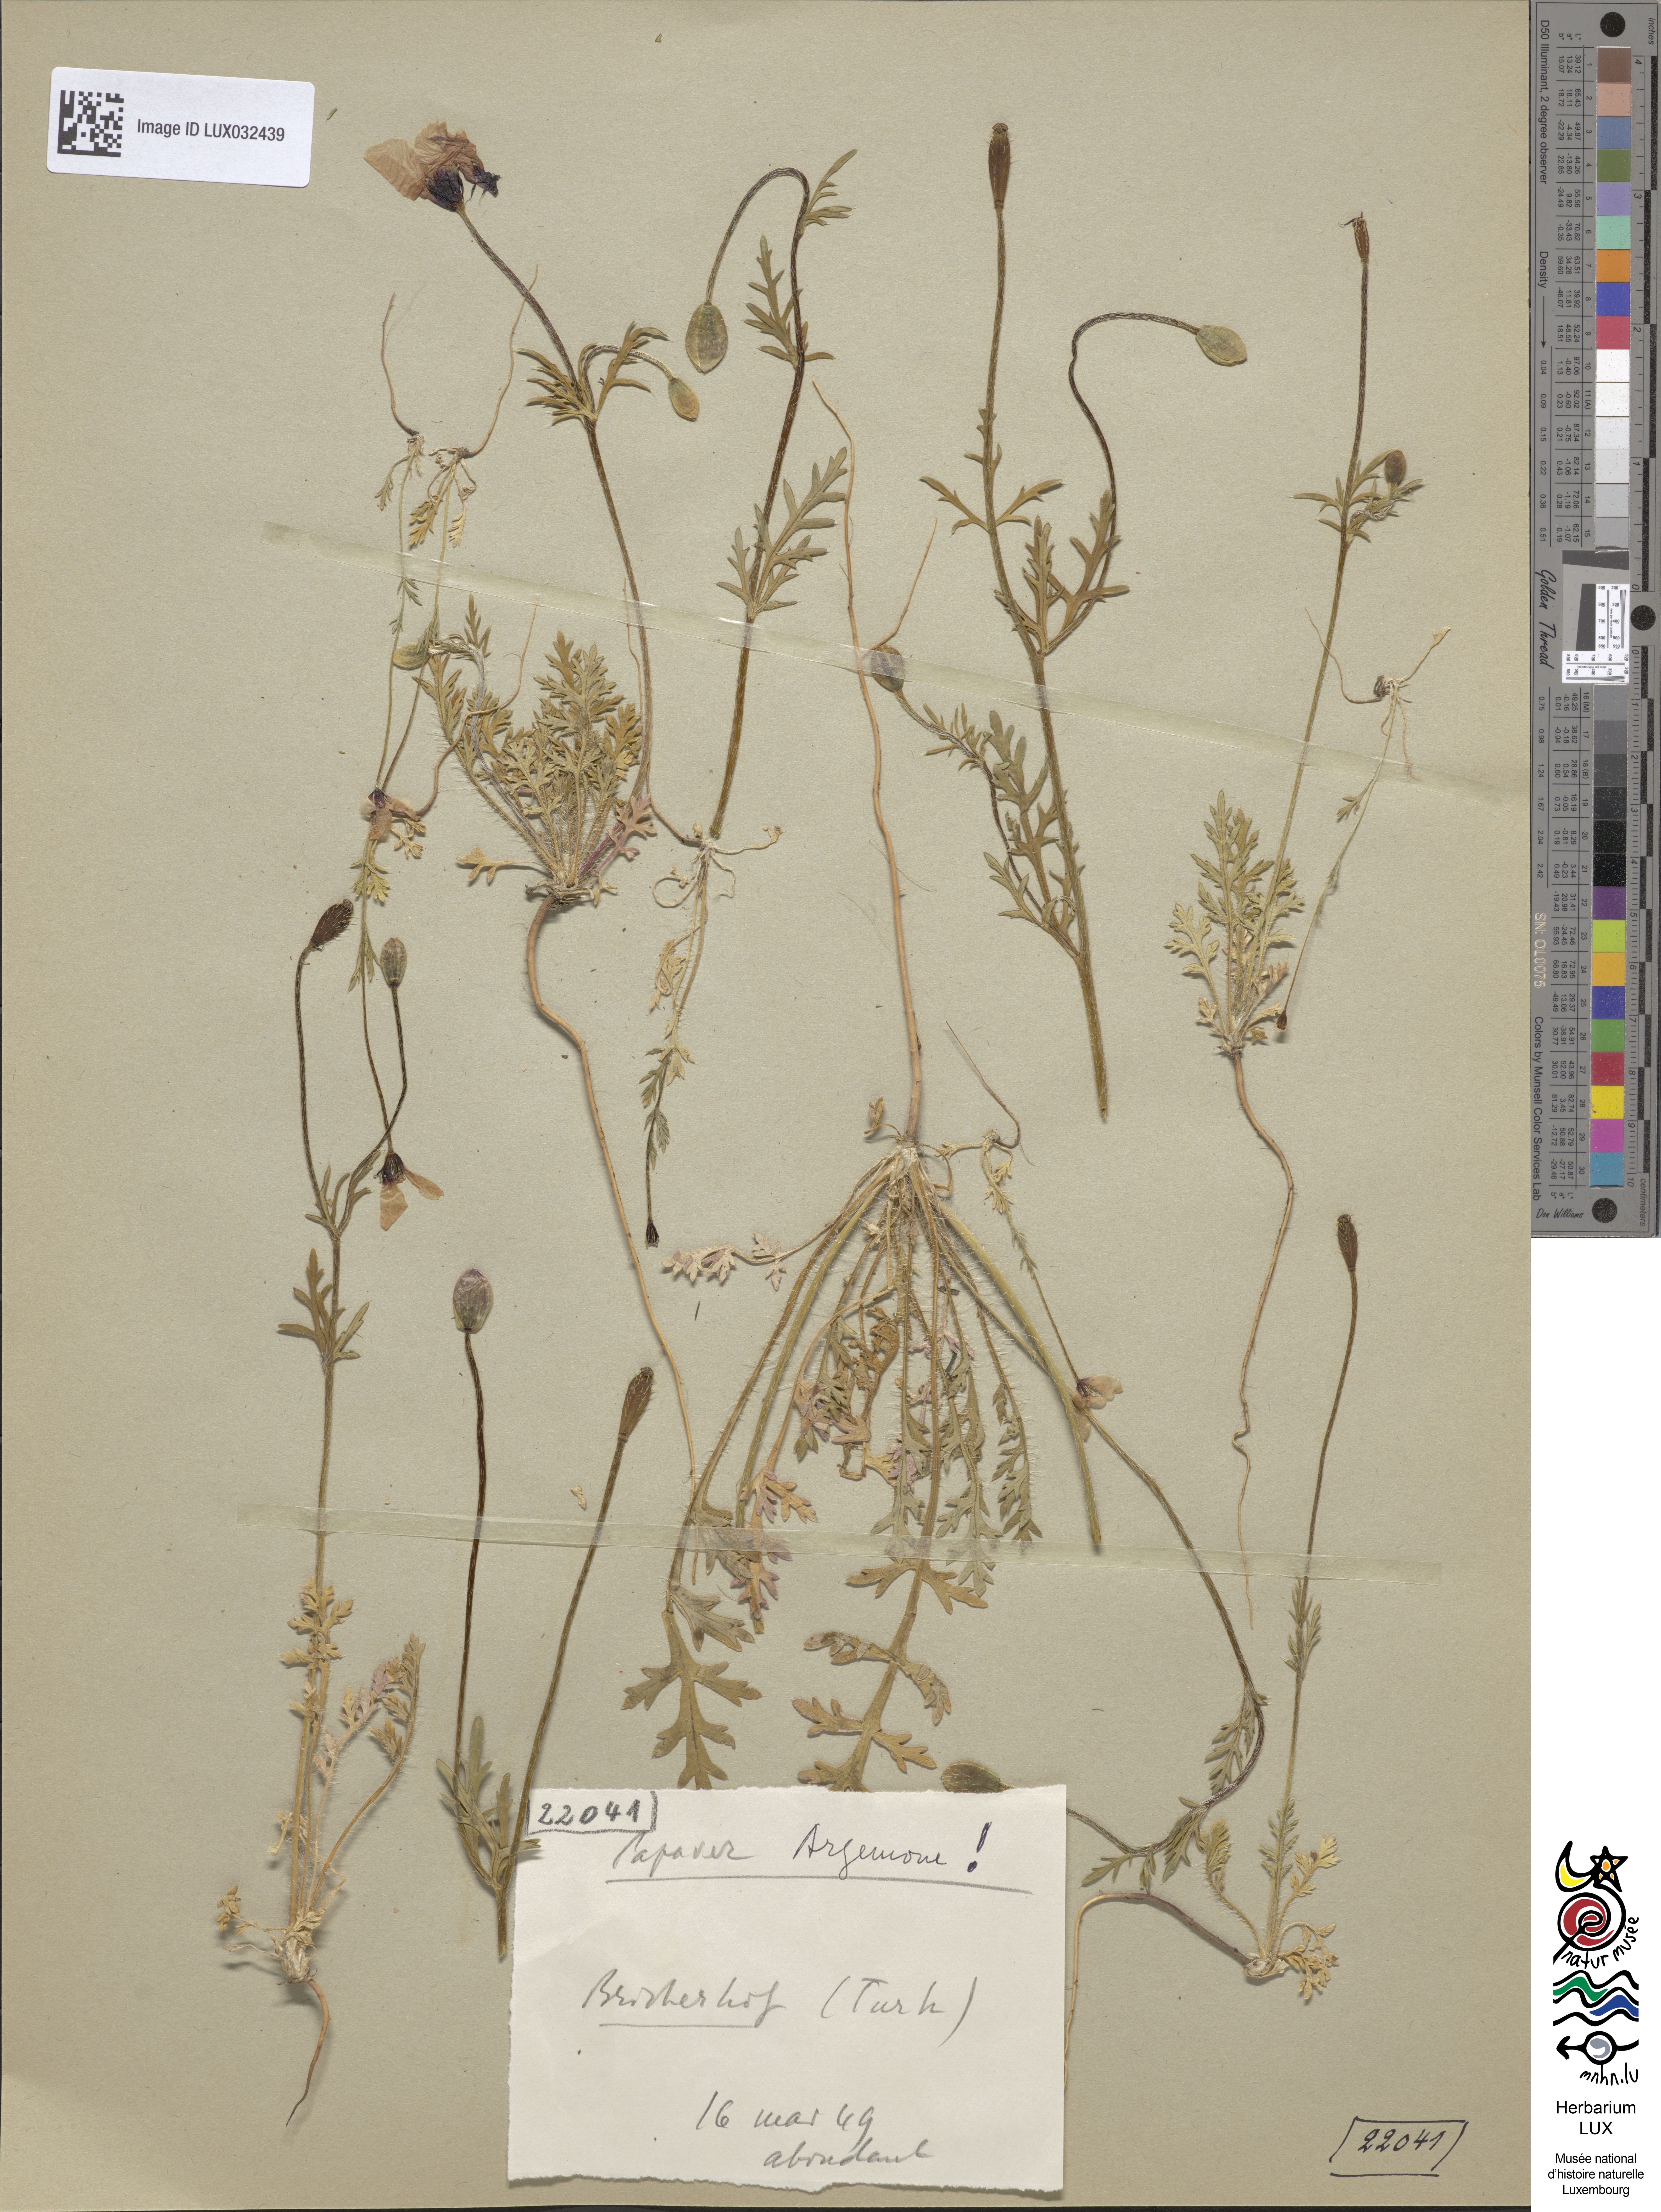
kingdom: Plantae
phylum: Tracheophyta
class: Magnoliopsida
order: Ranunculales
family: Papaveraceae
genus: Roemeria
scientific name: Roemeria argemone
